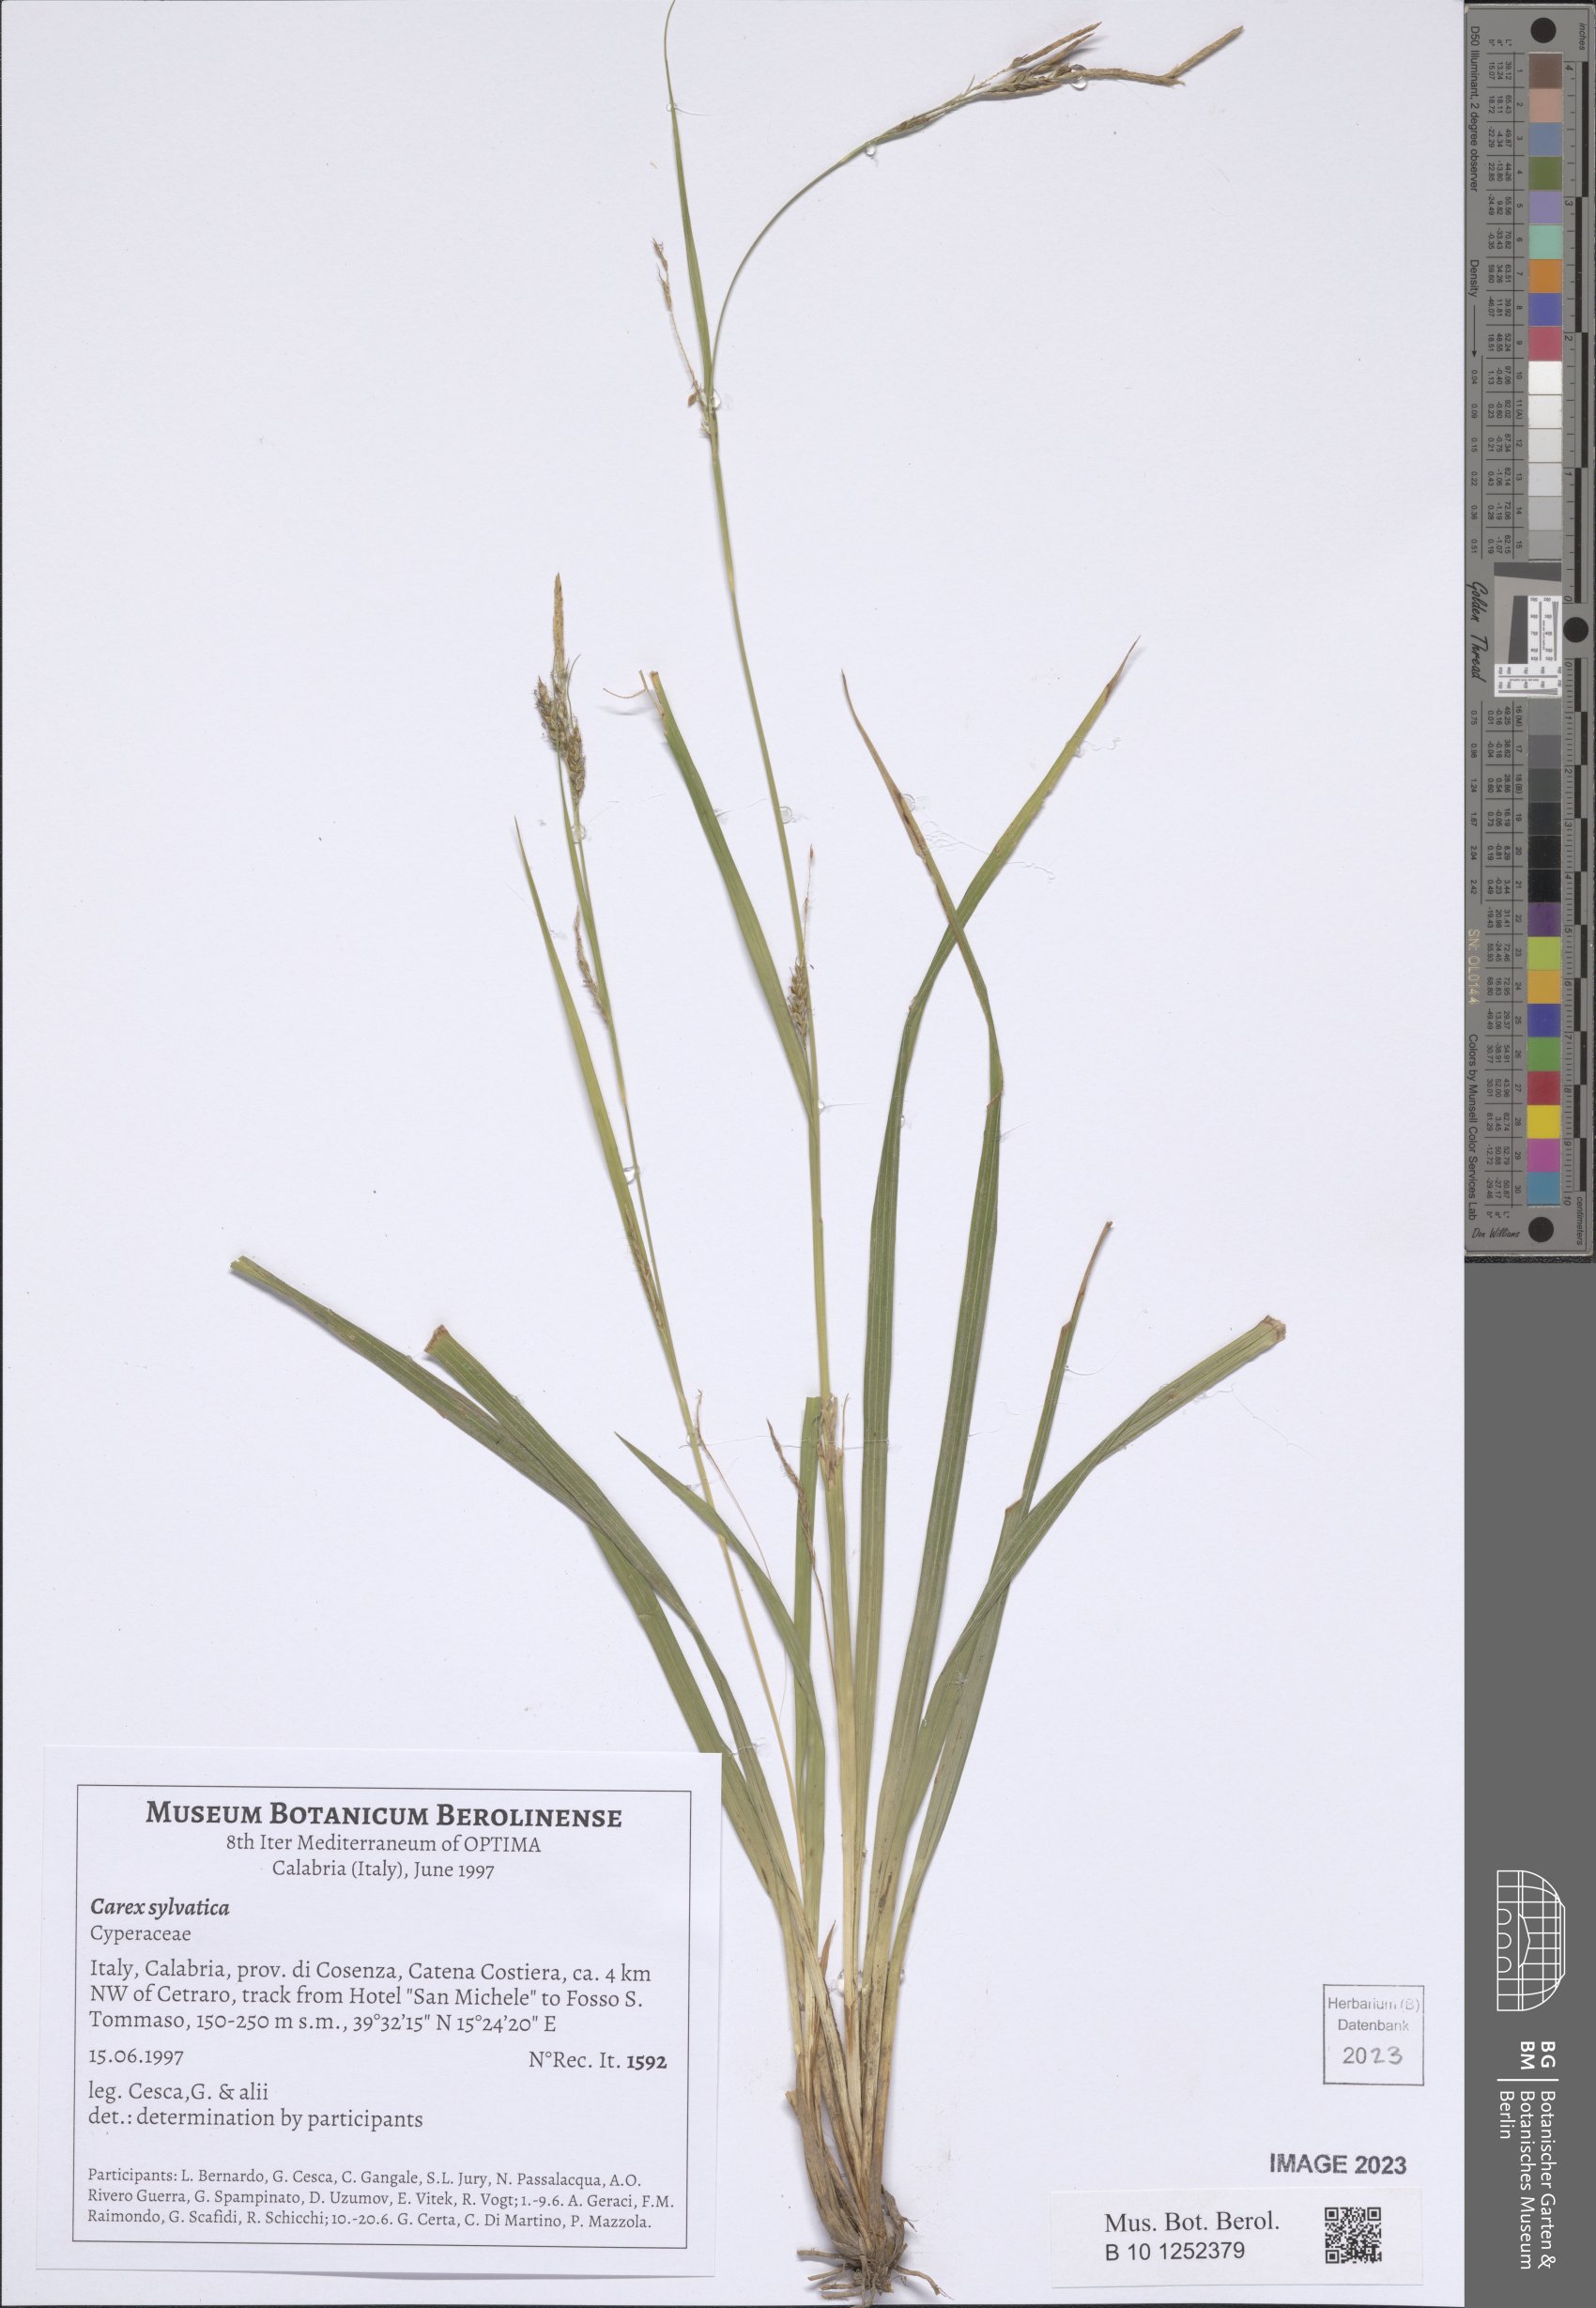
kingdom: Plantae
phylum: Tracheophyta
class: Liliopsida
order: Poales
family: Cyperaceae
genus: Carex
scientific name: Carex sylvatica
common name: Wood-sedge
